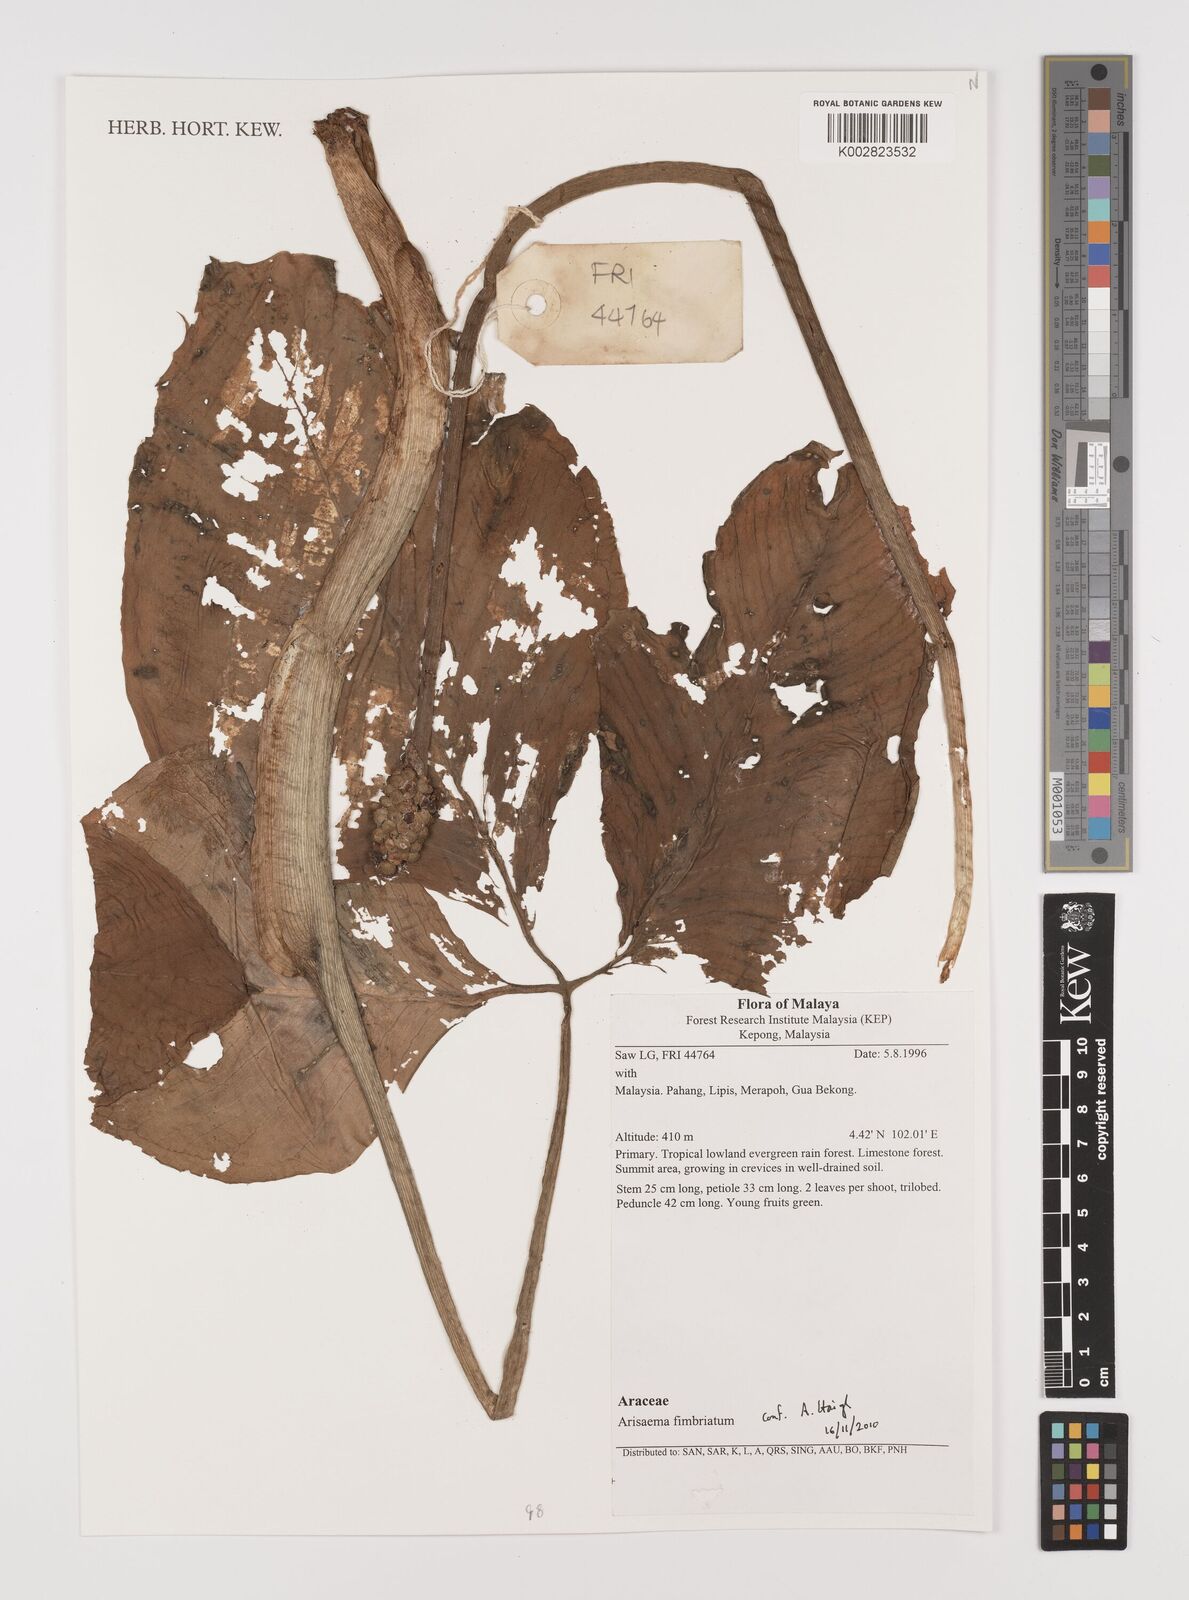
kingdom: Plantae
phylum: Tracheophyta
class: Liliopsida
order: Alismatales
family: Araceae
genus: Arisaema
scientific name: Arisaema fimbriatum
